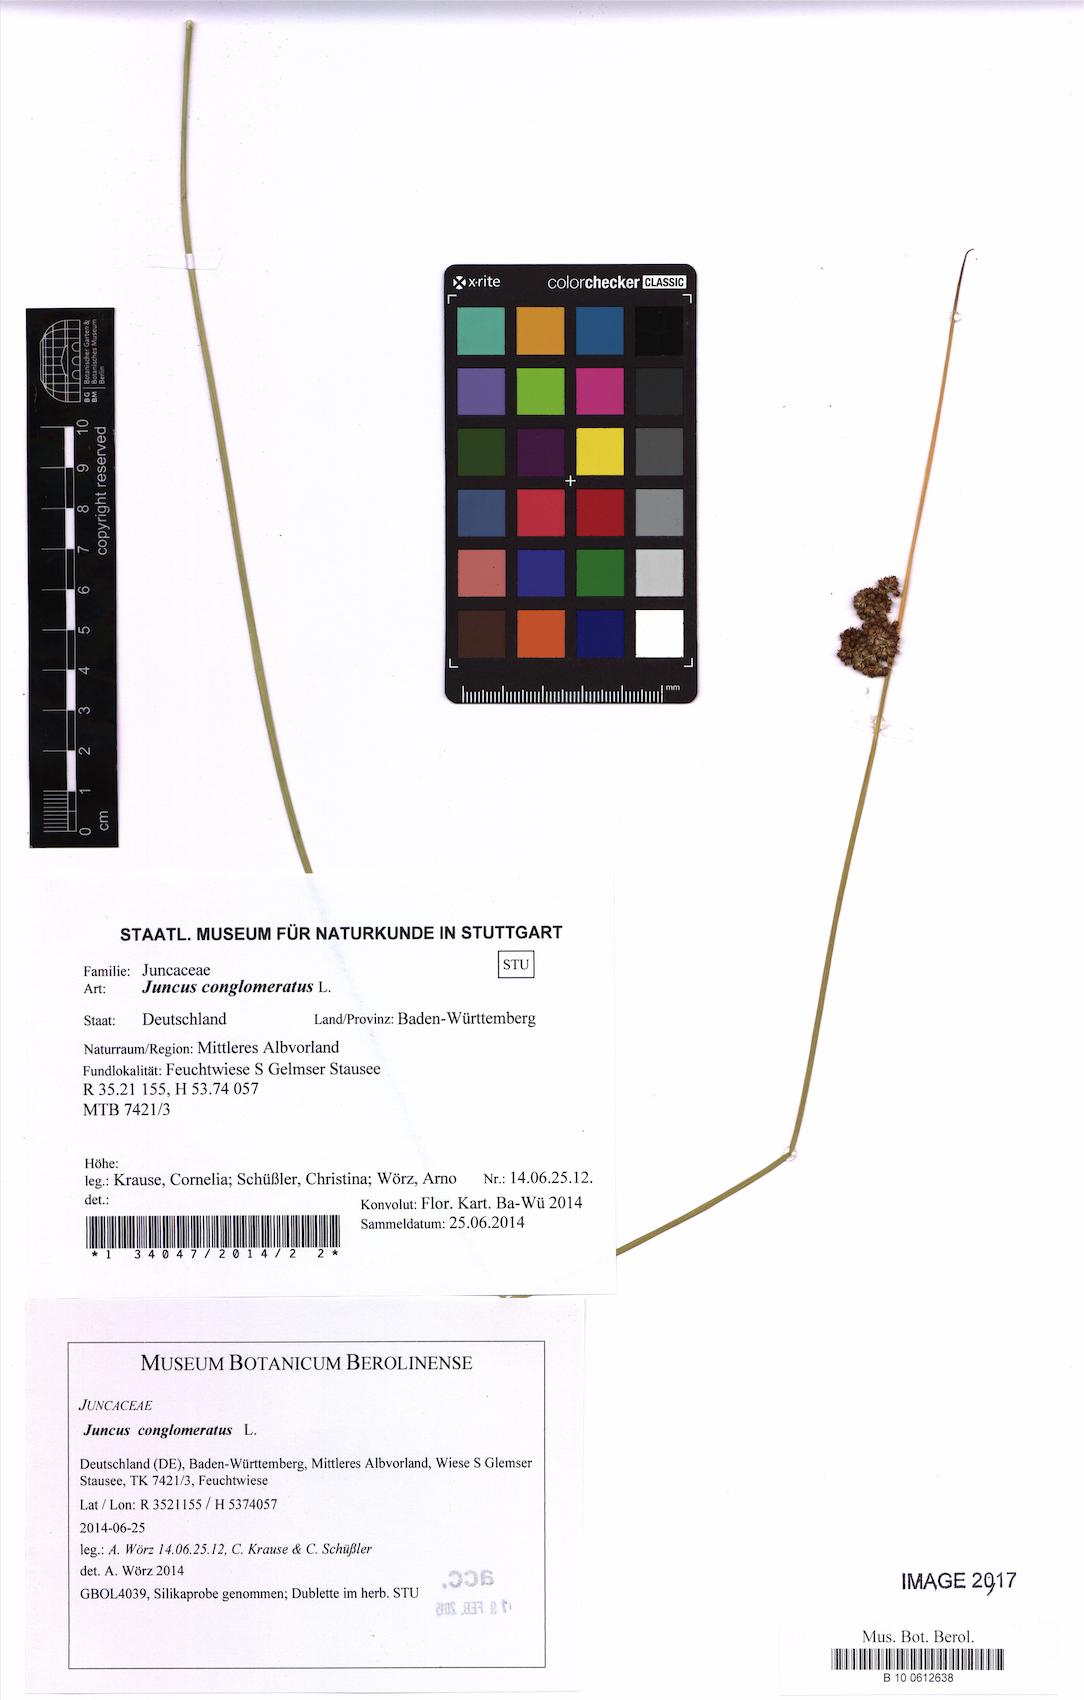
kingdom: Plantae
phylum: Tracheophyta
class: Liliopsida
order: Poales
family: Juncaceae
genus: Juncus
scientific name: Juncus conglomeratus
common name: Compact rush
